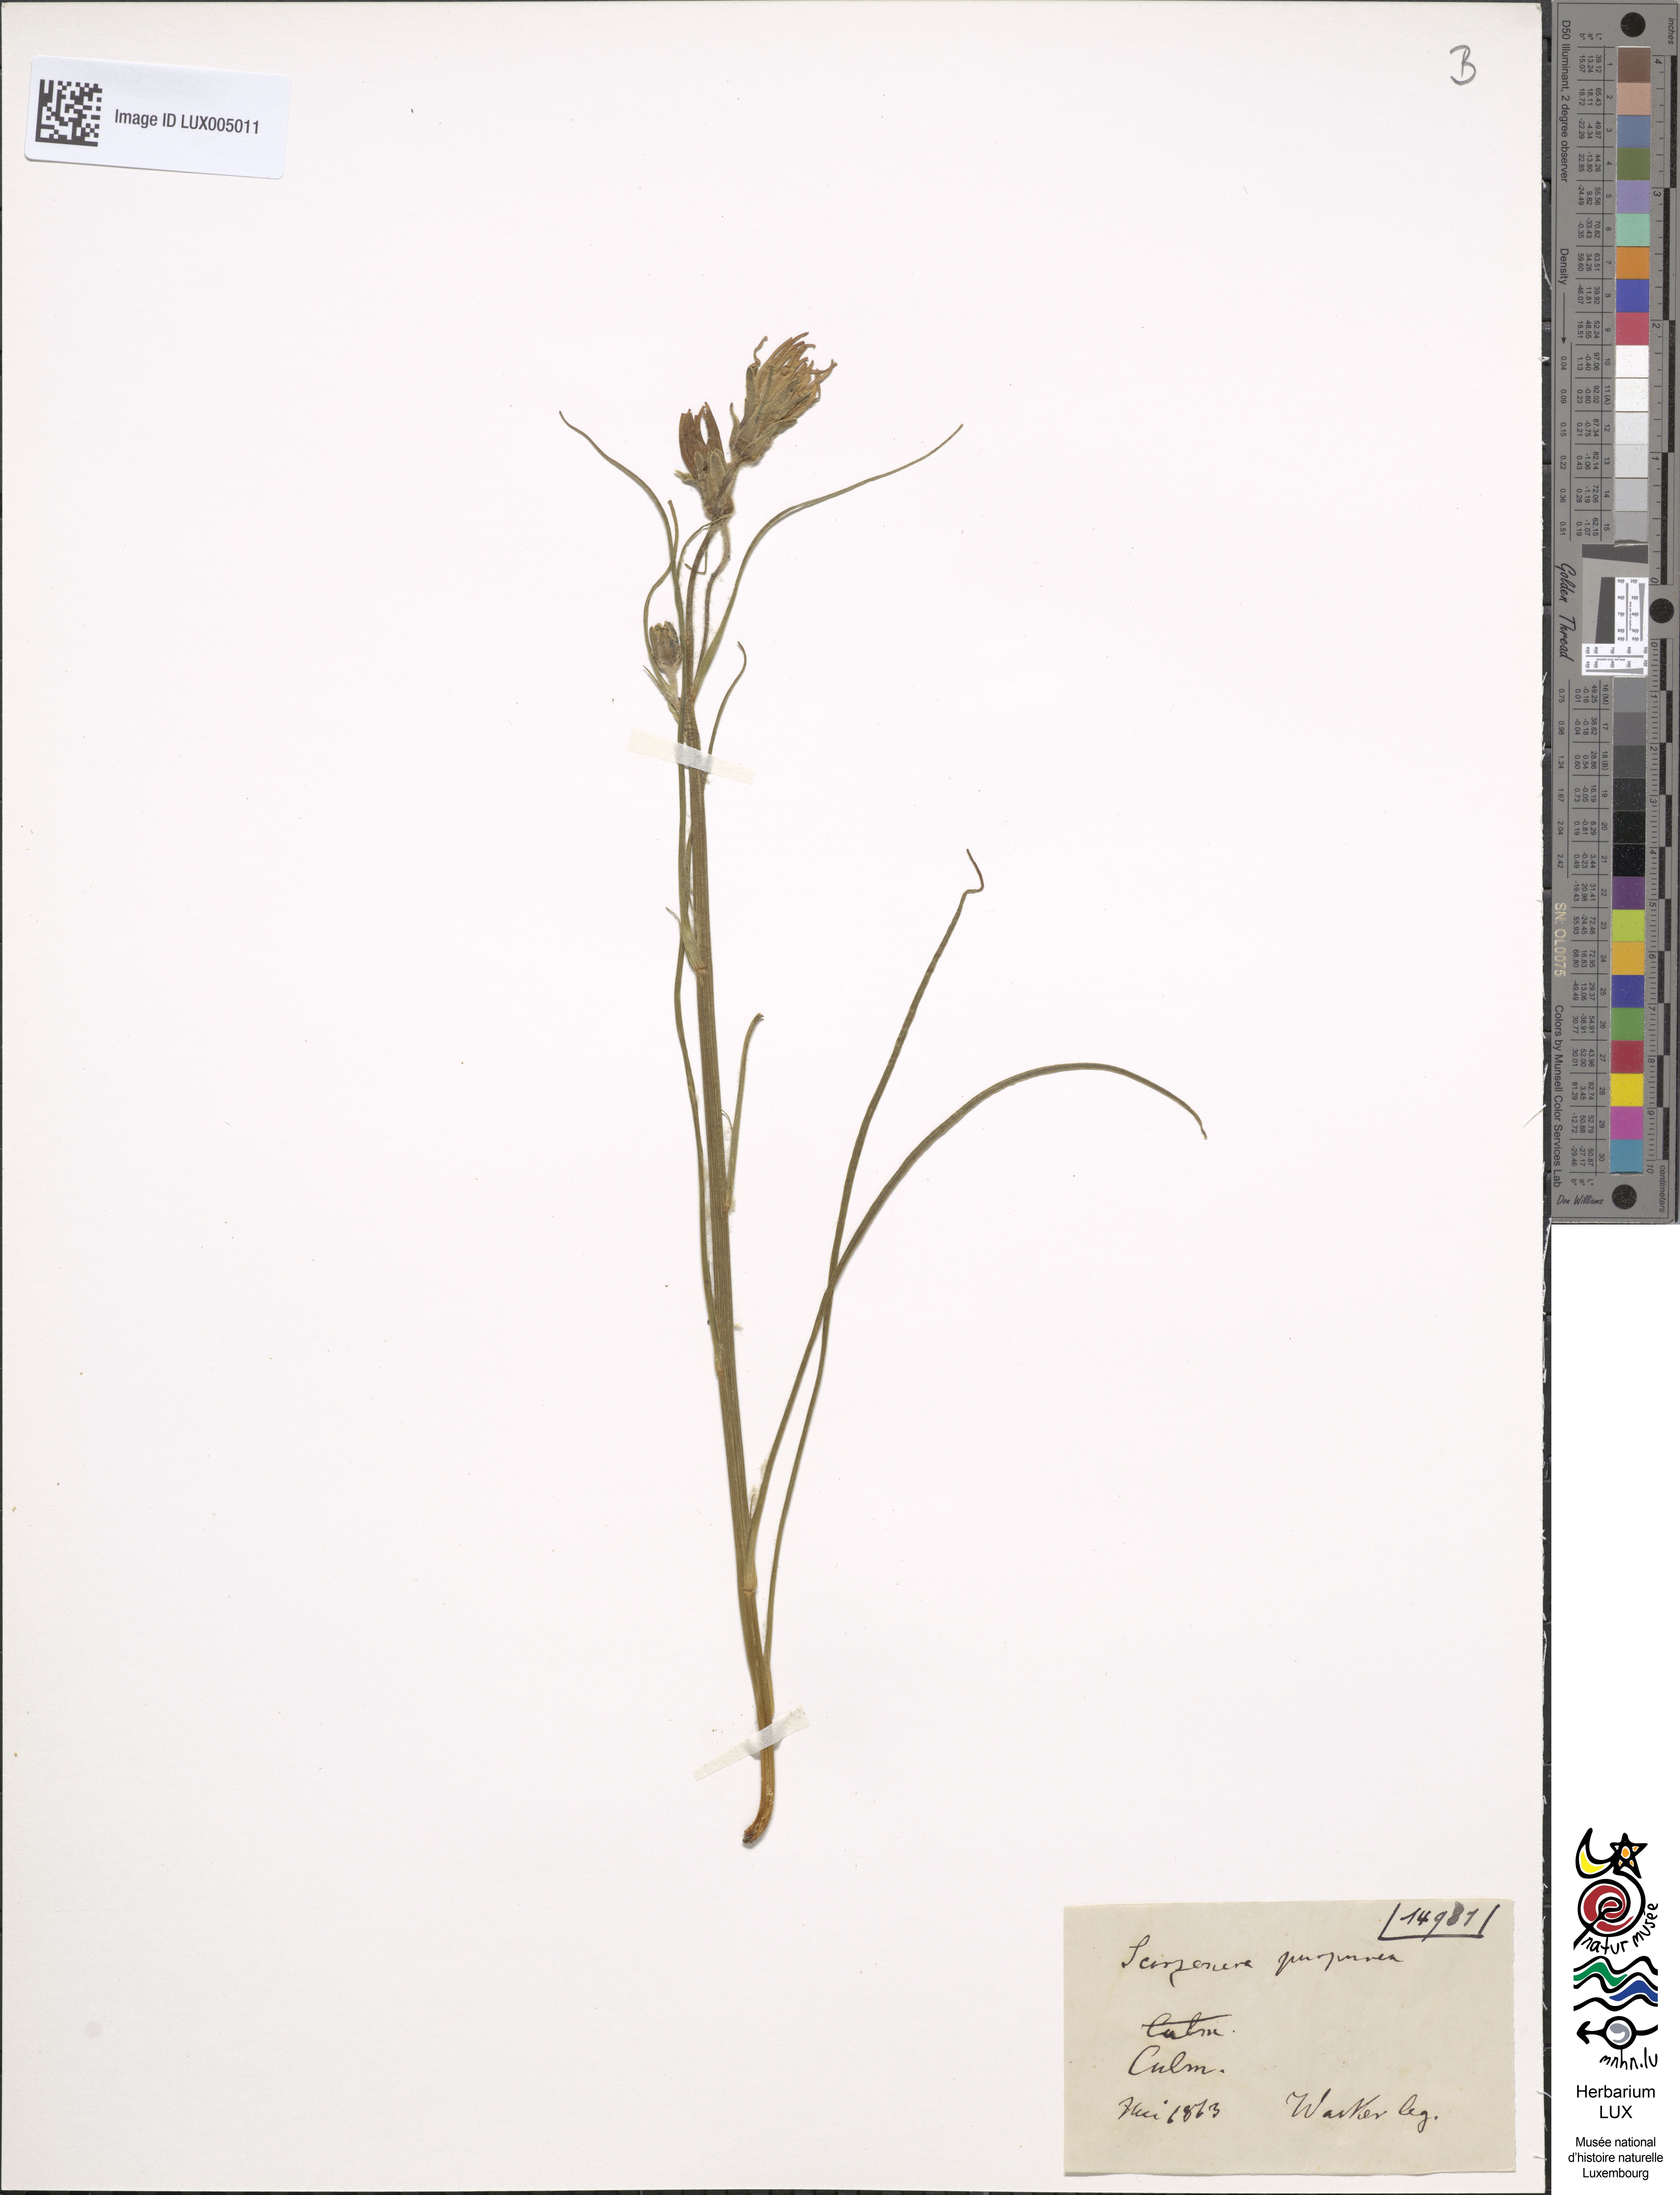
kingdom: Plantae
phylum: Tracheophyta
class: Magnoliopsida
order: Asterales
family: Asteraceae
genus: Scorzonera
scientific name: Scorzonera purpurea
